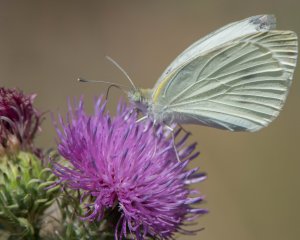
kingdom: Animalia
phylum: Arthropoda
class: Insecta
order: Lepidoptera
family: Pieridae
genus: Pieris
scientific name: Pieris rapae
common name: Cabbage White
